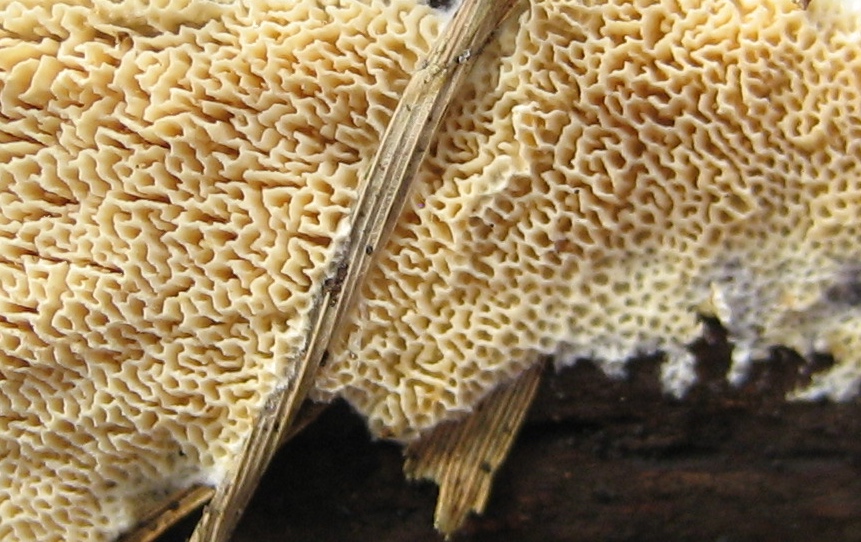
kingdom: Fungi
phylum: Basidiomycota
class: Agaricomycetes
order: Hymenochaetales
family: Schizoporaceae
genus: Xylodon
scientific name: Xylodon subtropicus
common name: labyrint-tandsvamp
